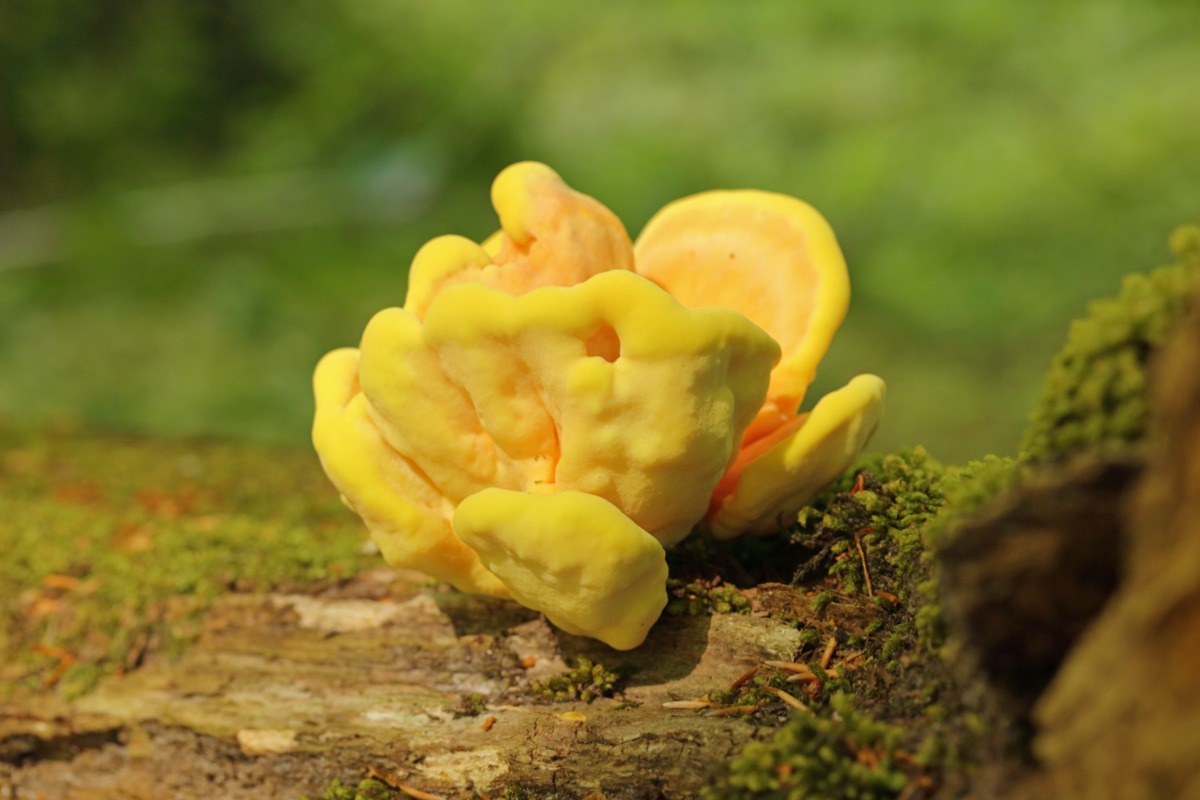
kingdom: Fungi
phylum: Basidiomycota
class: Agaricomycetes
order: Polyporales
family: Laetiporaceae
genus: Laetiporus
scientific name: Laetiporus sulphureus
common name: Svovlporesvamp
